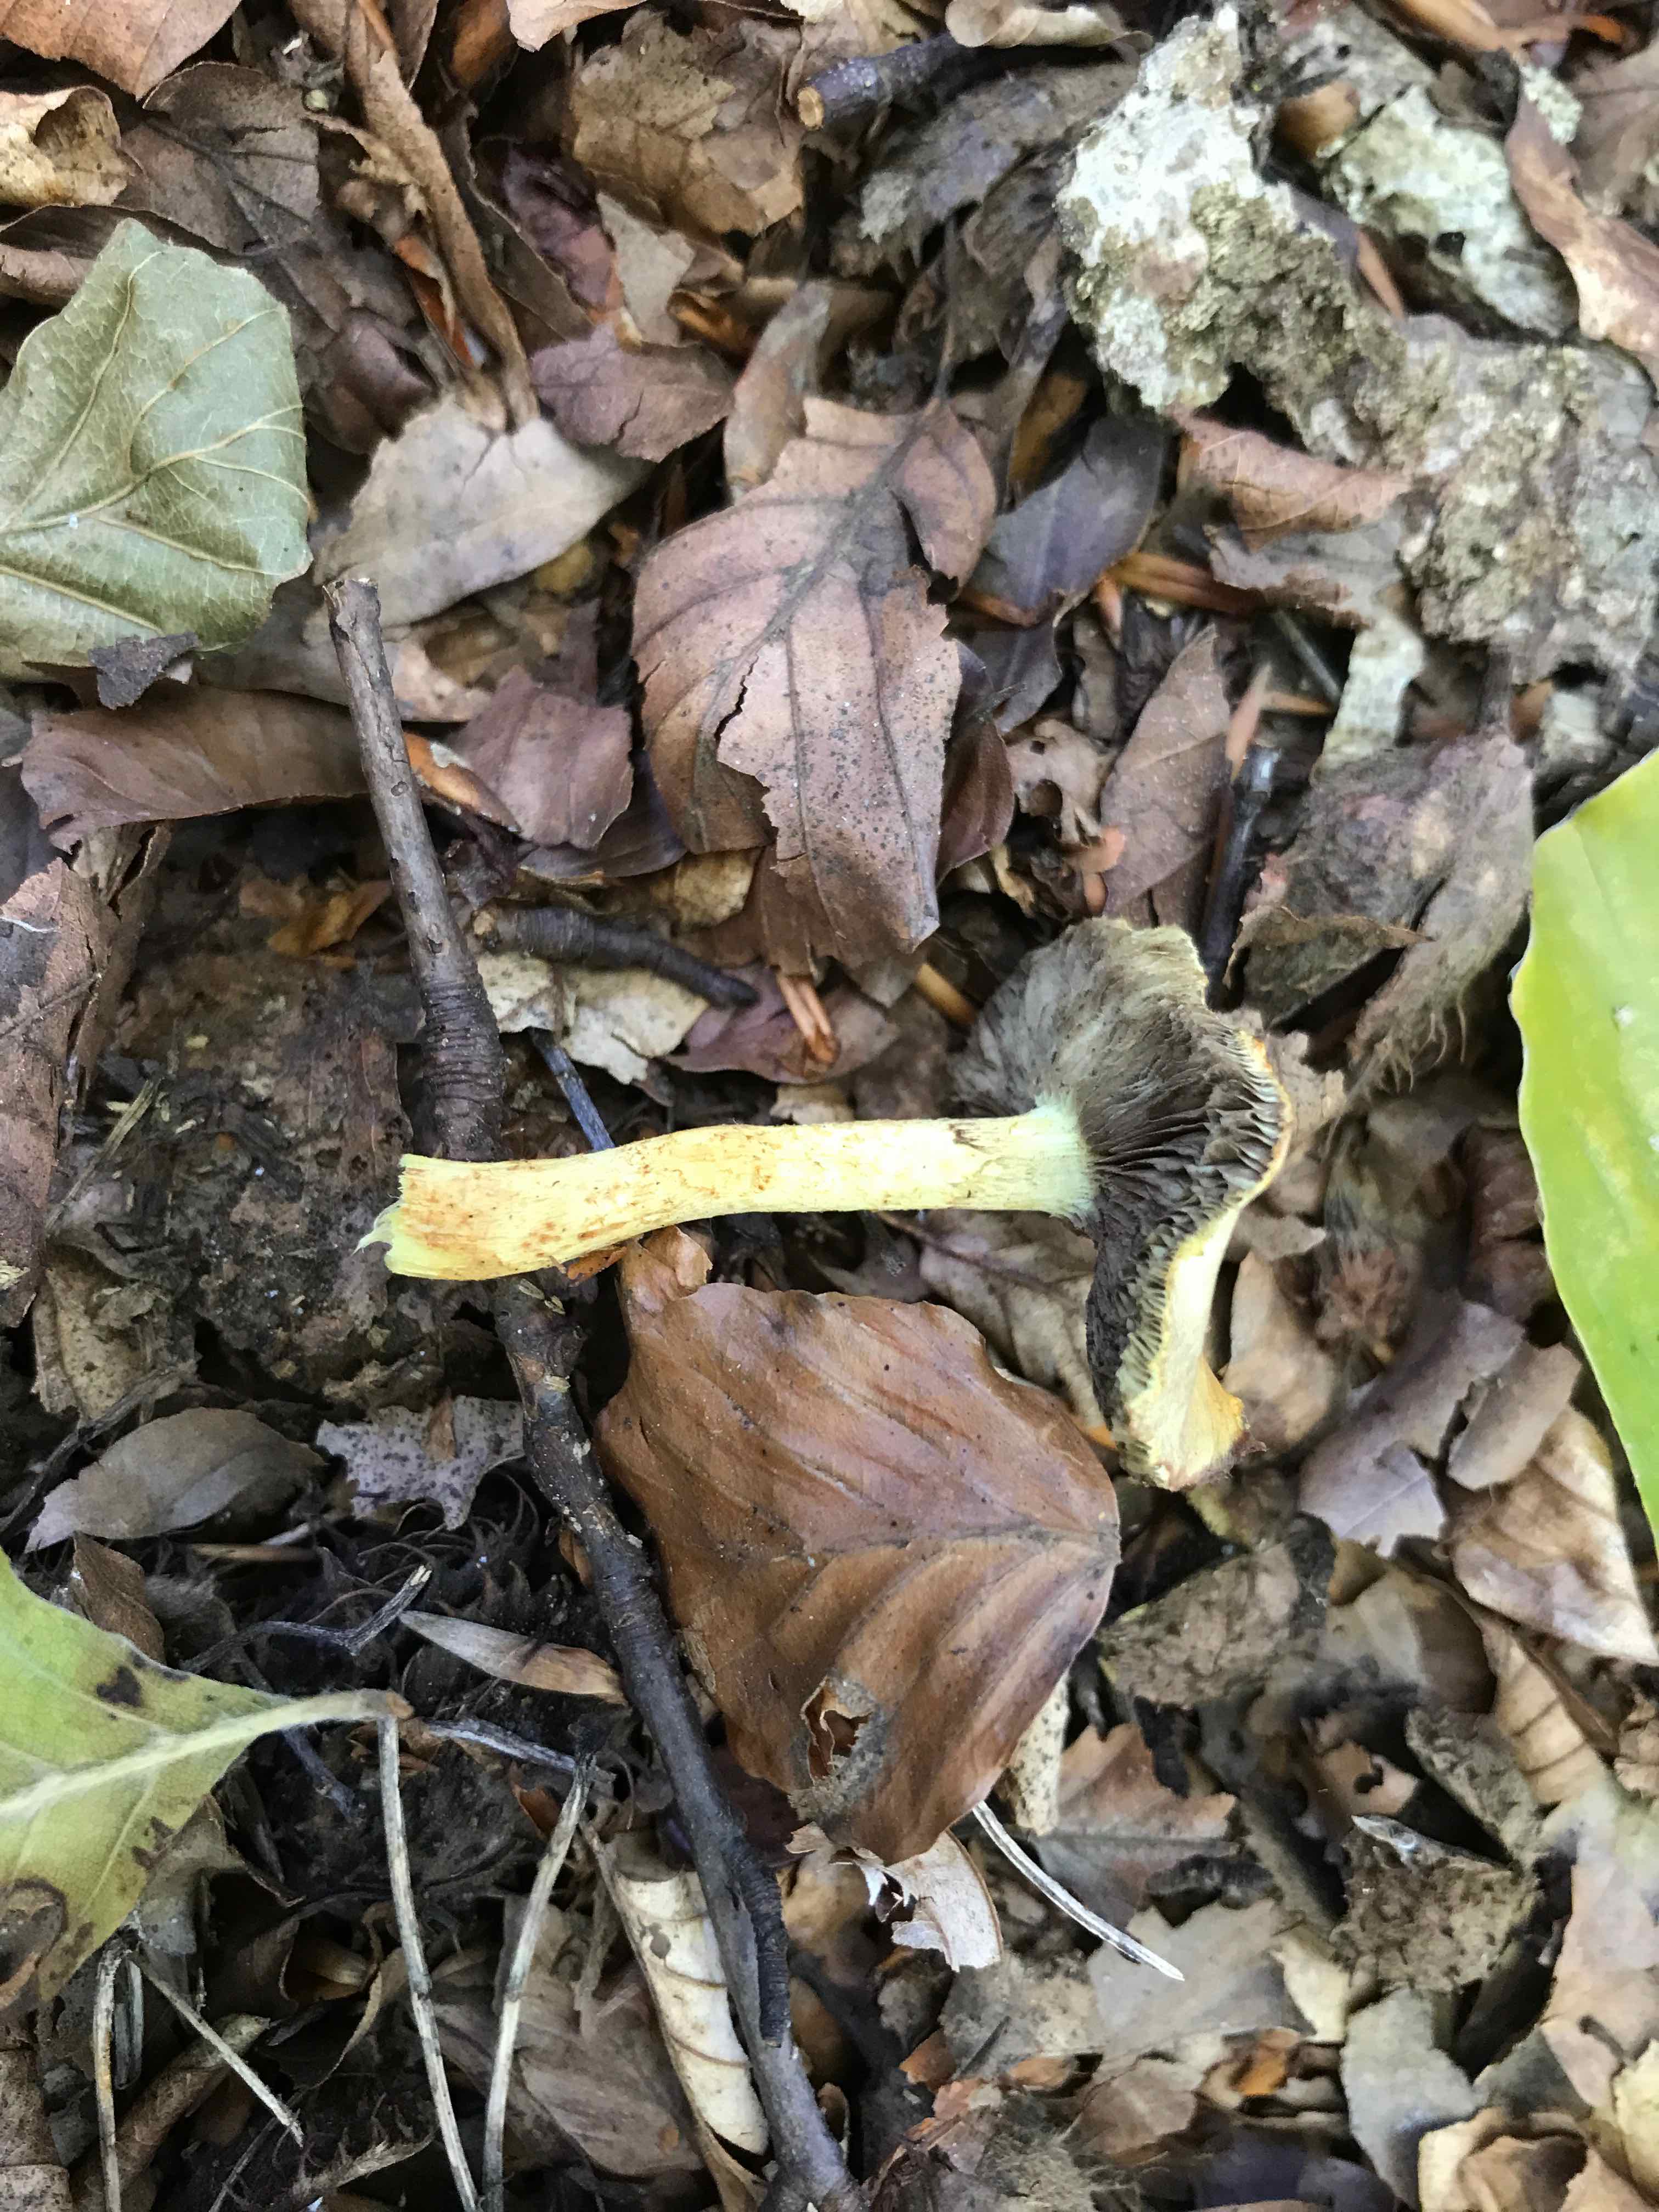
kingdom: Fungi
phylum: Basidiomycota
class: Agaricomycetes
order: Agaricales
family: Strophariaceae
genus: Hypholoma
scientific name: Hypholoma fasciculare
